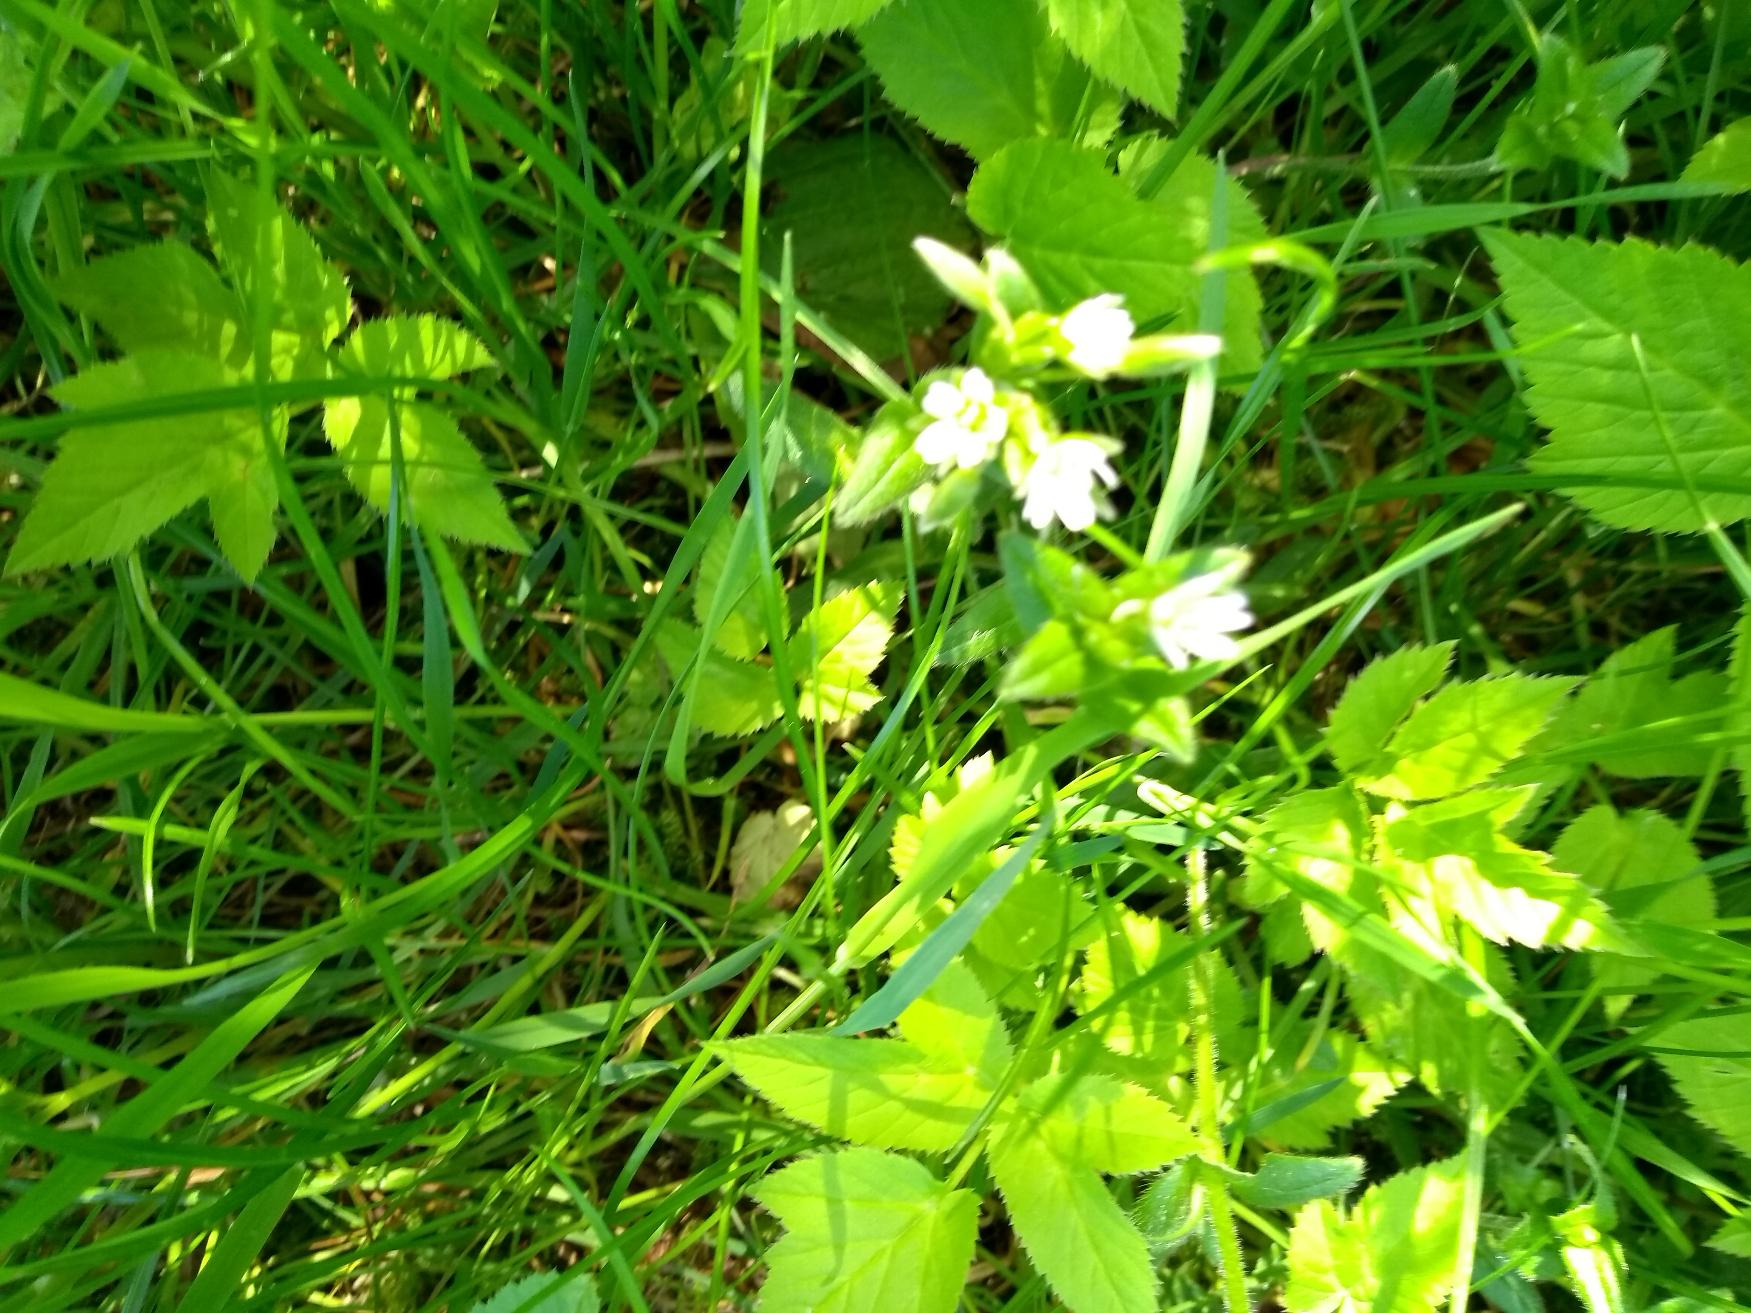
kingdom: Plantae
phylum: Tracheophyta
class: Magnoliopsida
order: Caryophyllales
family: Caryophyllaceae
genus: Cerastium
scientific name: Cerastium fontanum
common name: Almindelig hønsetarm
